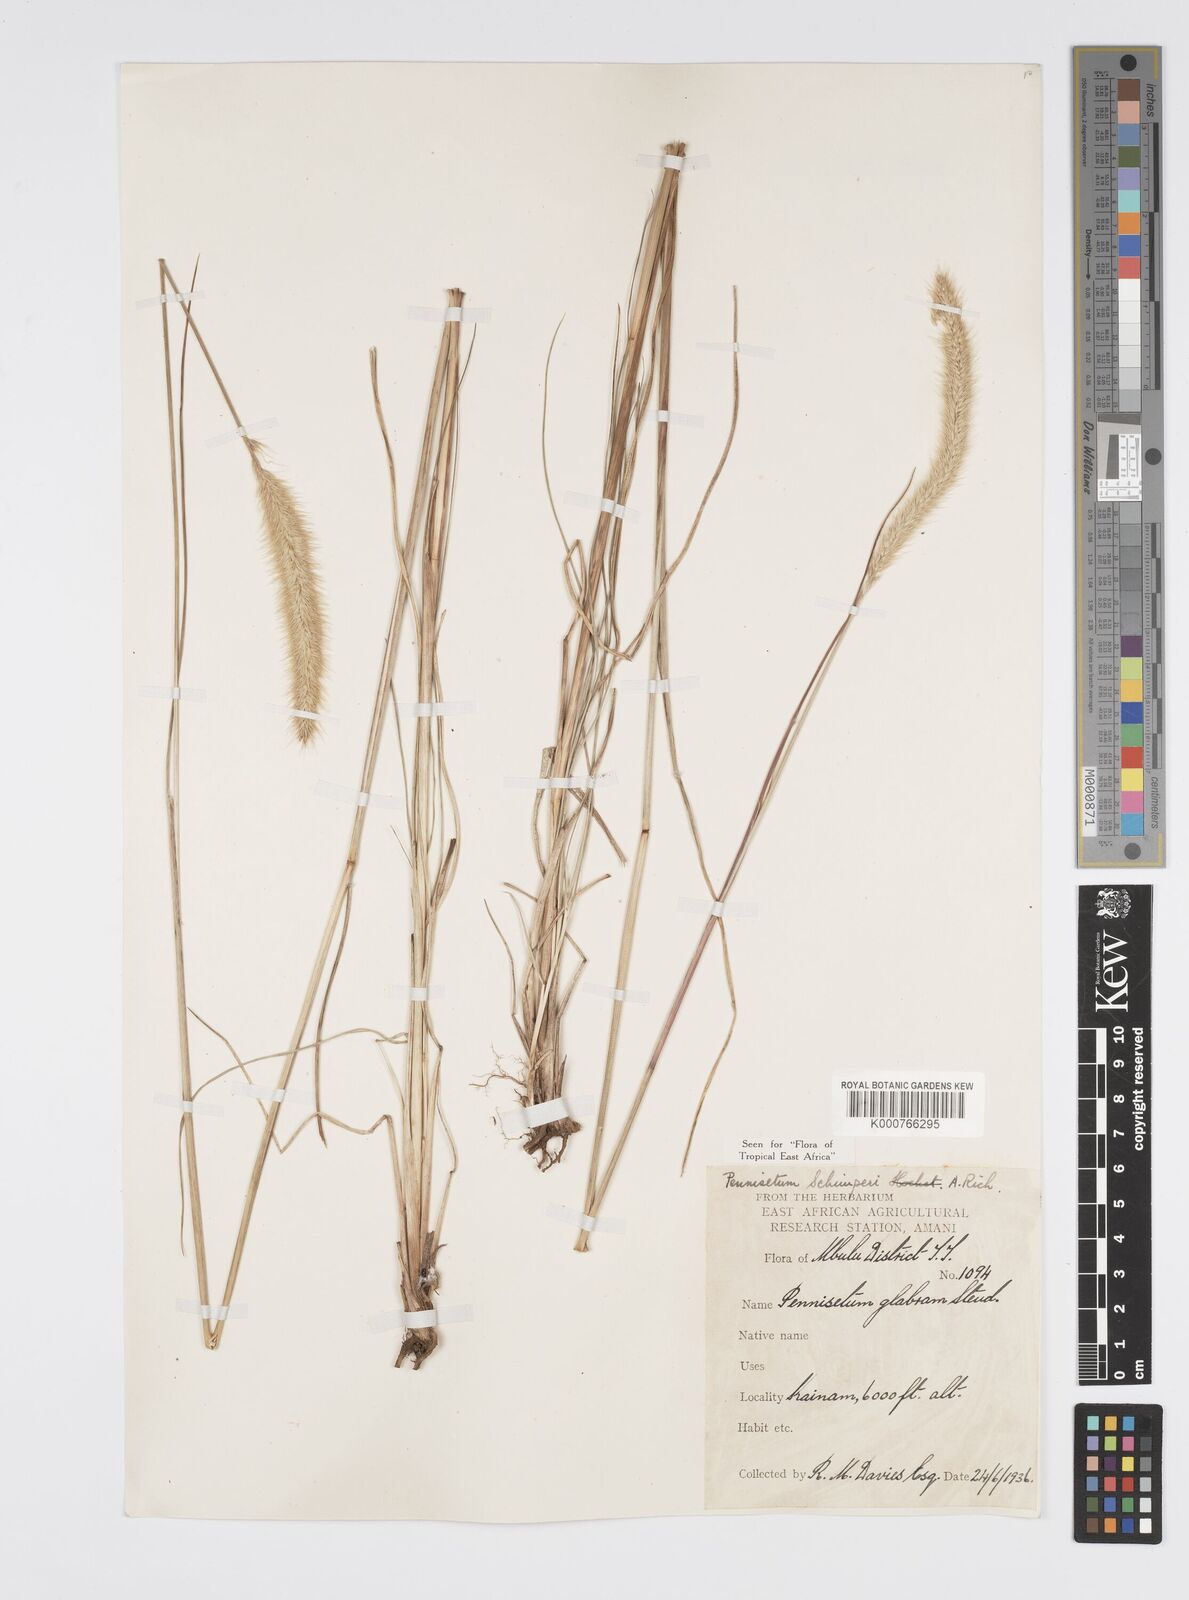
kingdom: Plantae
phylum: Tracheophyta
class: Liliopsida
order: Poales
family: Poaceae
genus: Cenchrus
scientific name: Cenchrus sphacelatus
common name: Bulgras
